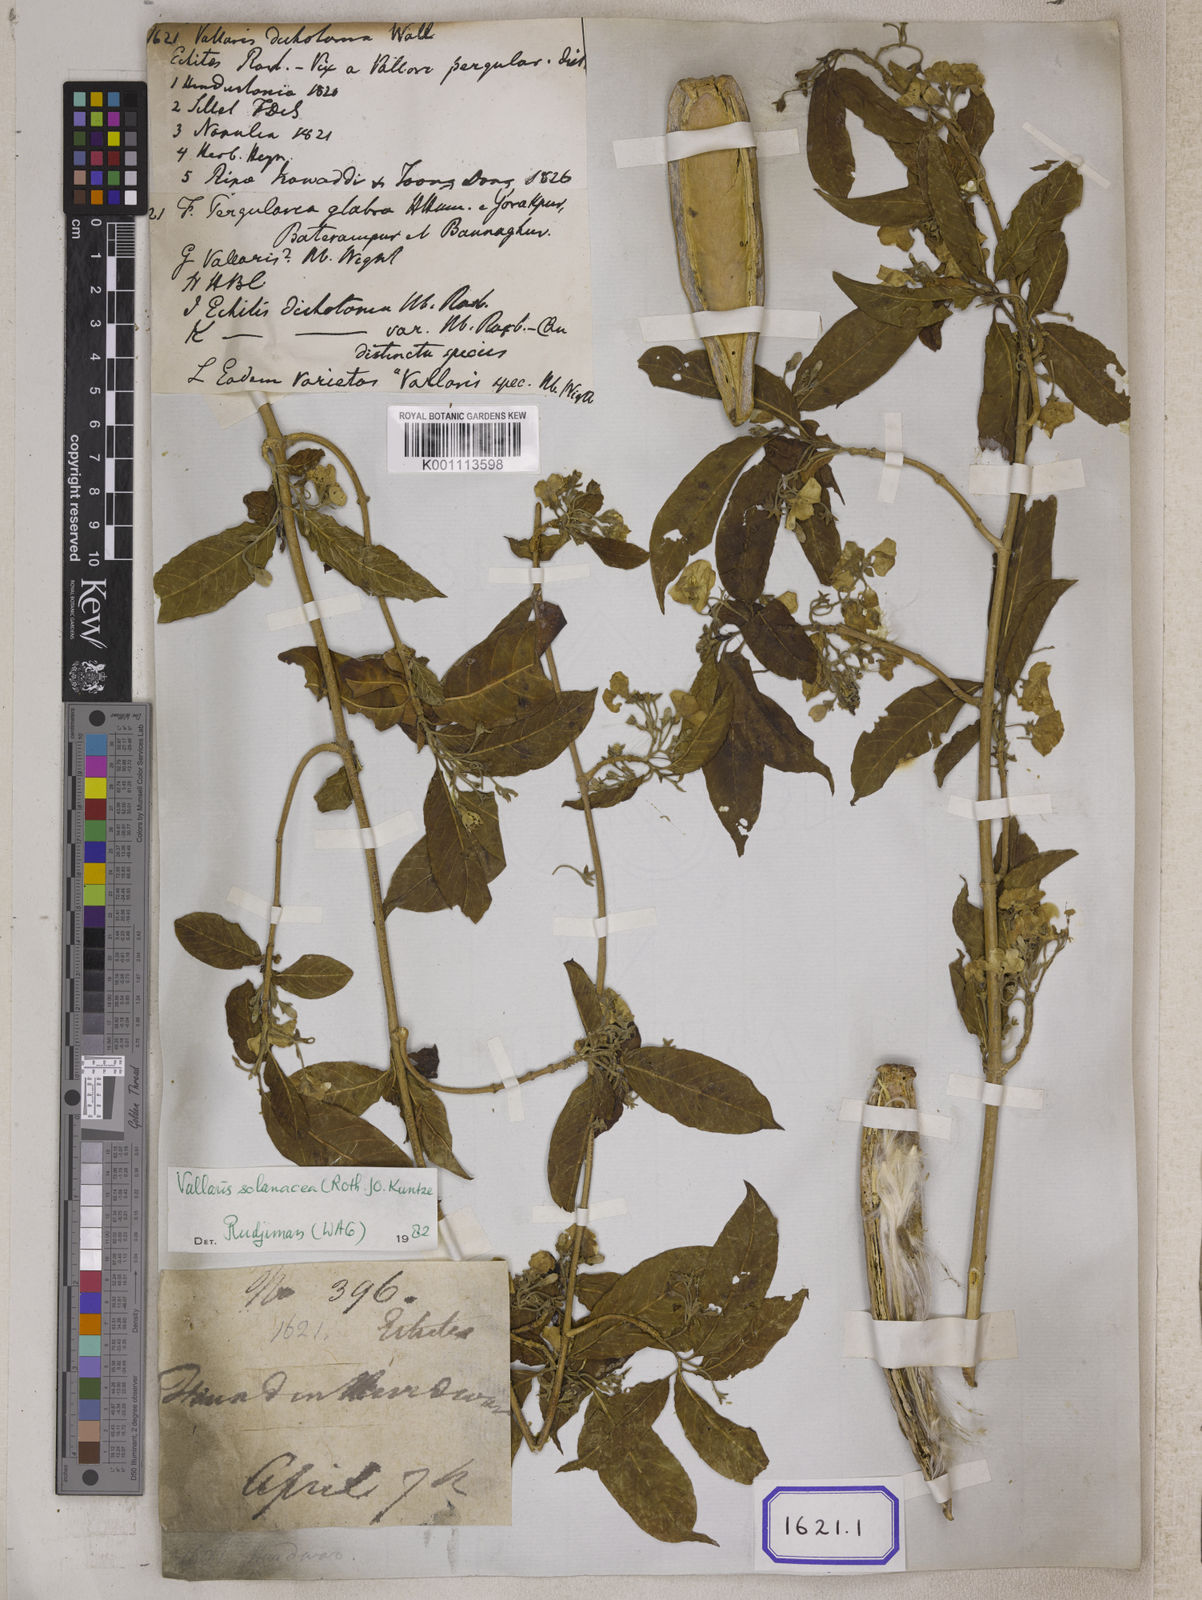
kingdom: Plantae
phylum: Tracheophyta
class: Magnoliopsida
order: Gentianales
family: Apocynaceae
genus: Vallaris
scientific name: Vallaris glabra
